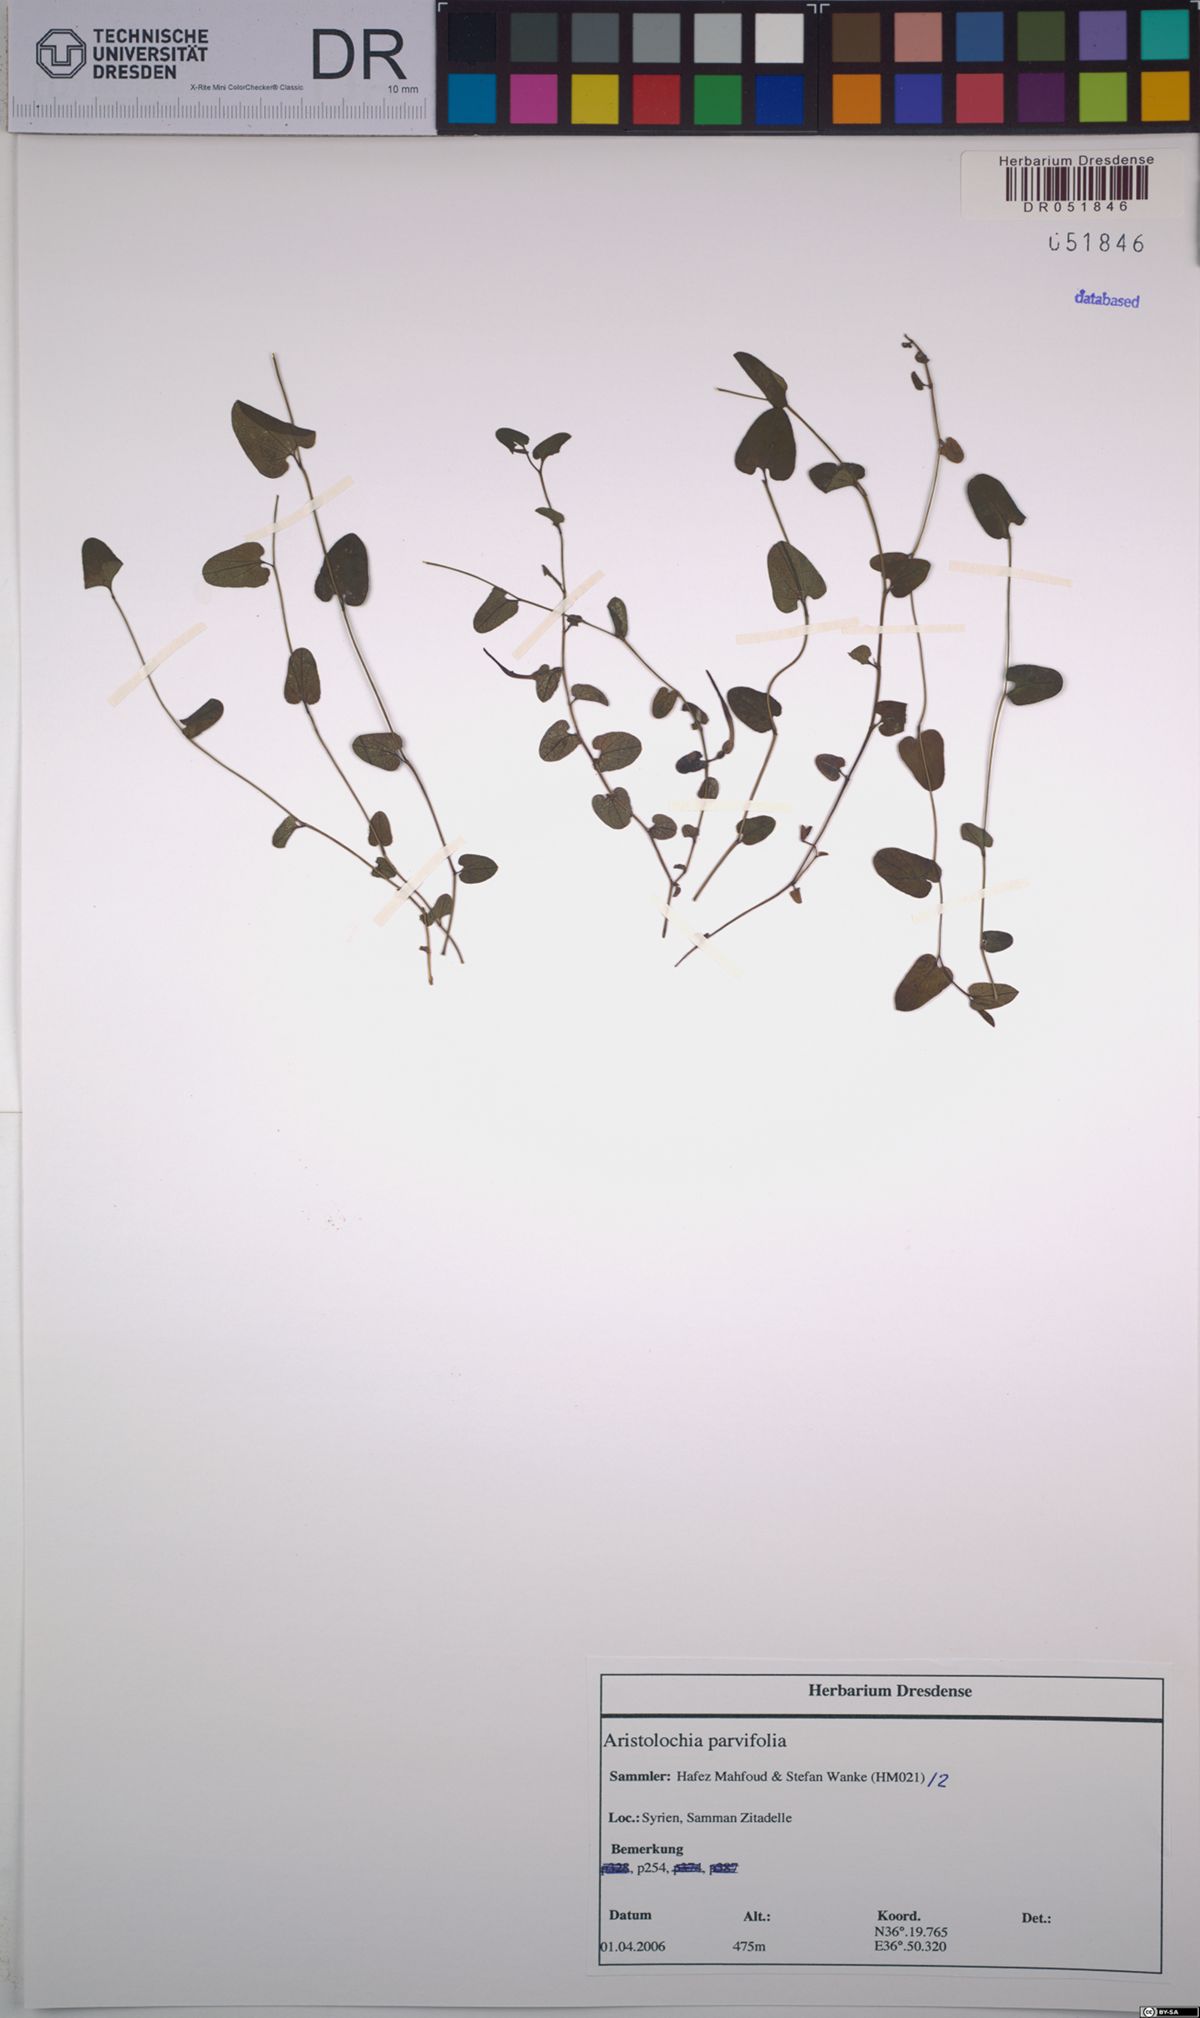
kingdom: Plantae
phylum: Tracheophyta
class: Magnoliopsida
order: Piperales
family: Aristolochiaceae
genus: Aristolochia
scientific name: Aristolochia parvifolia
